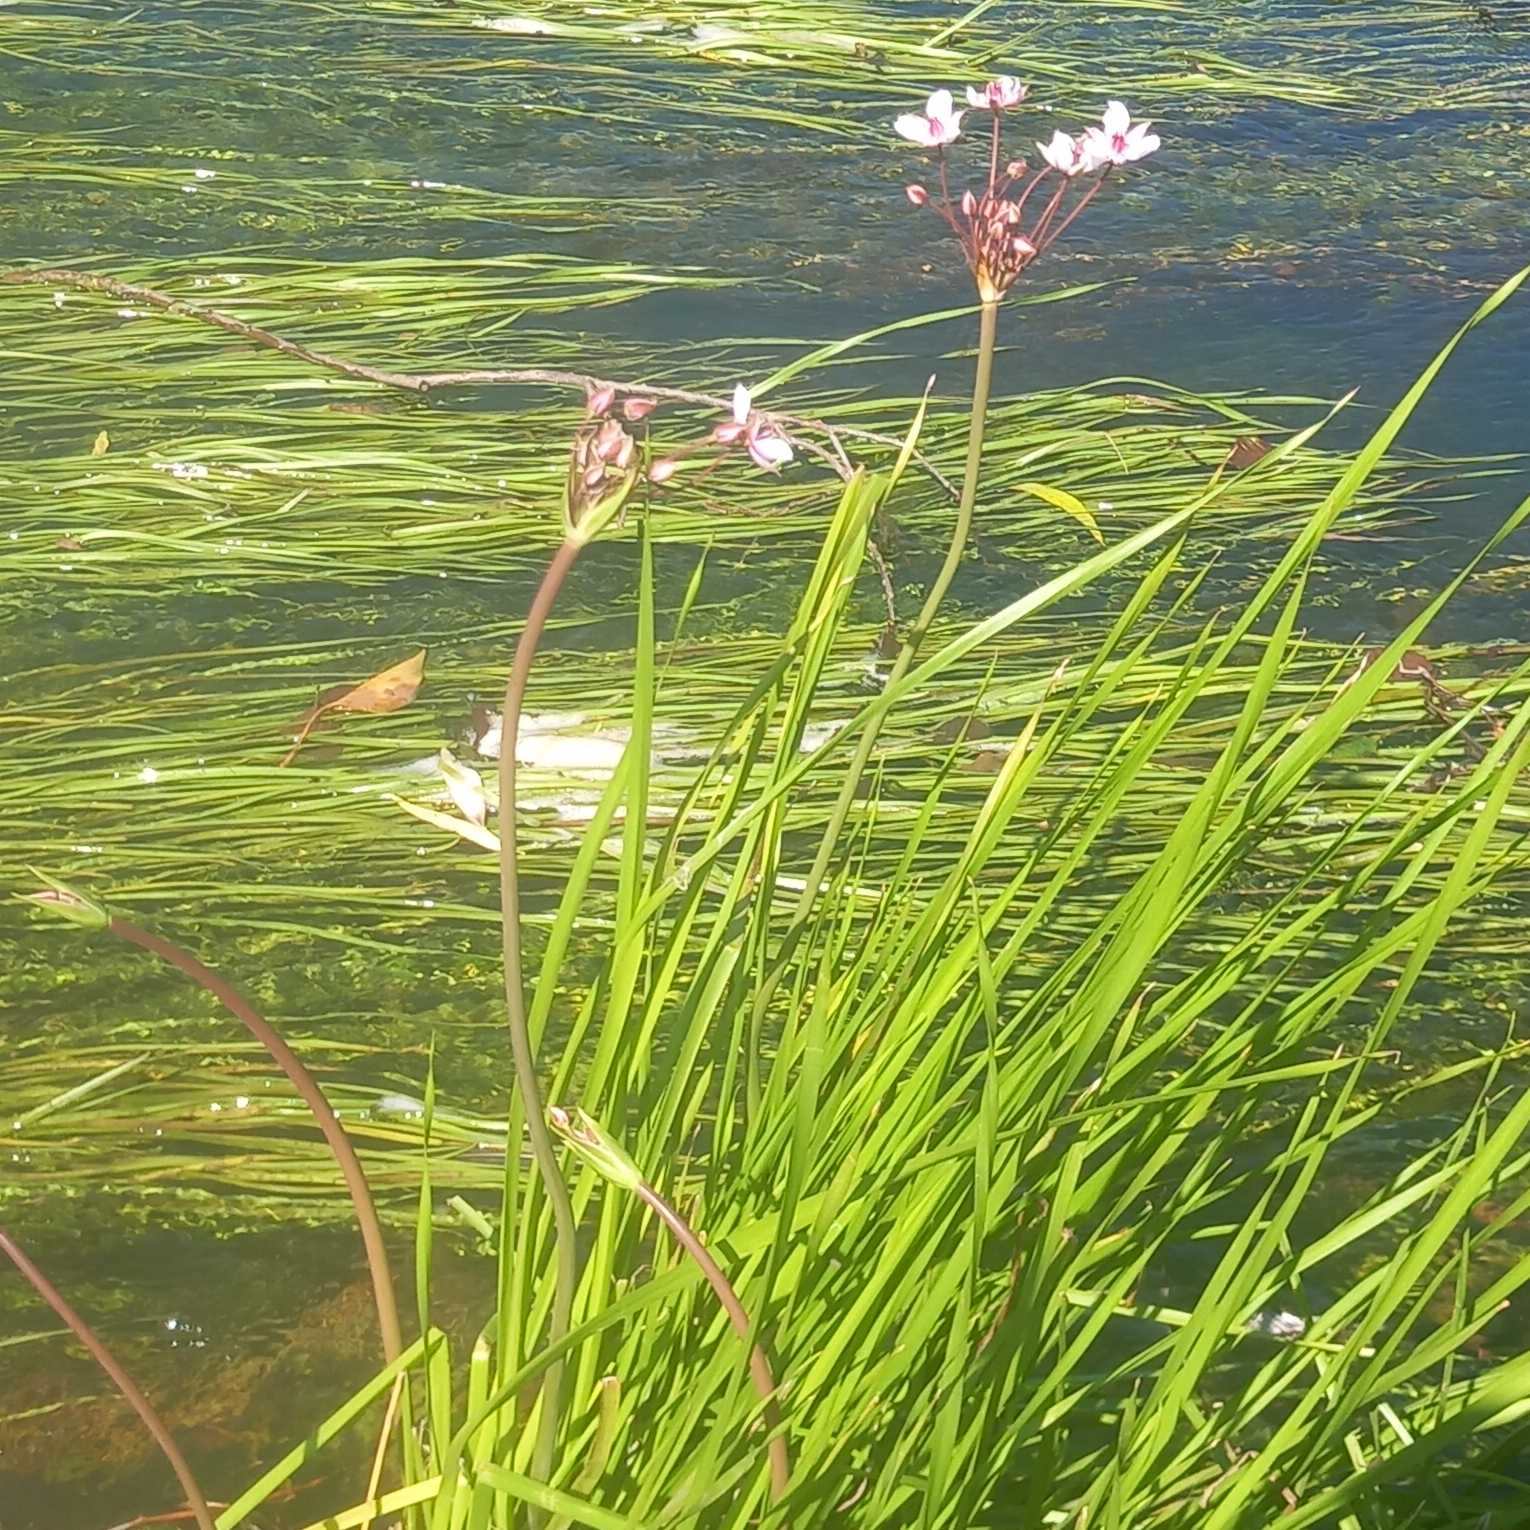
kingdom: Plantae
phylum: Tracheophyta
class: Liliopsida
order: Alismatales
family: Butomaceae
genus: Butomus
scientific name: Butomus umbellatus
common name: Brudelys
